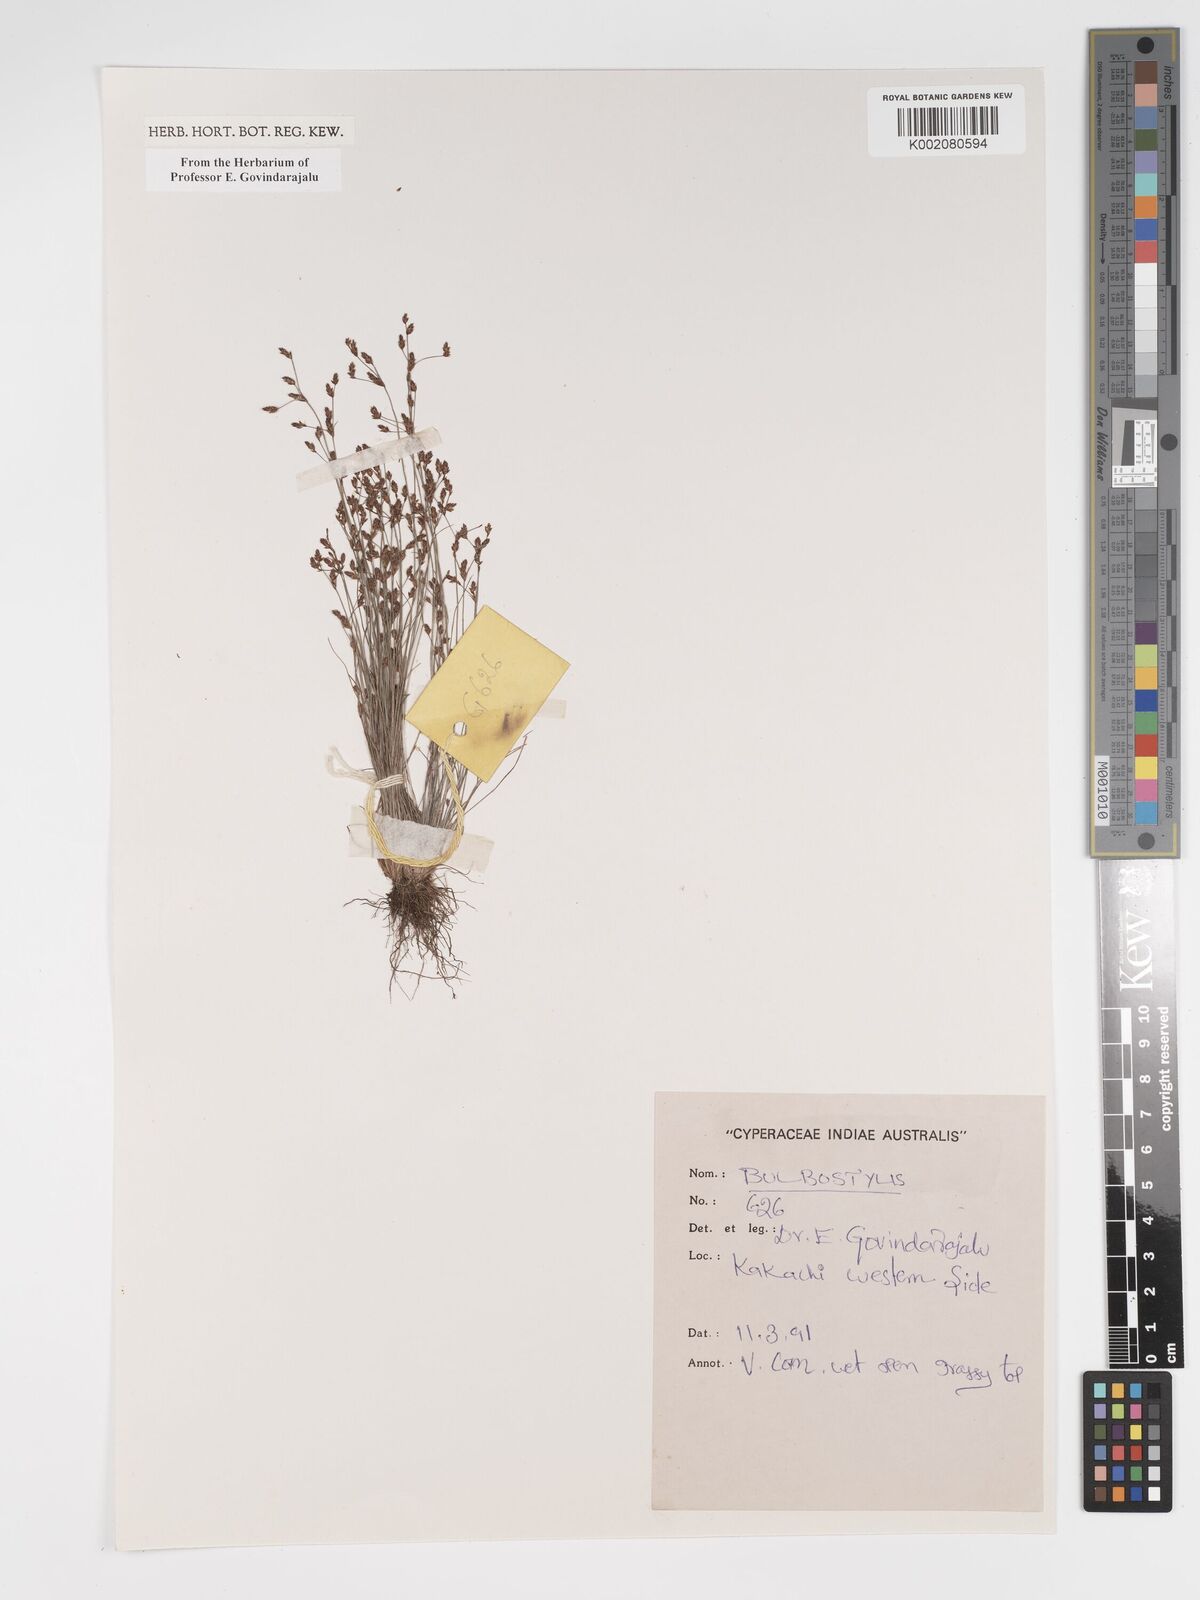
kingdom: Plantae
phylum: Tracheophyta
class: Liliopsida
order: Poales
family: Cyperaceae
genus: Bulbostylis
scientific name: Bulbostylis
